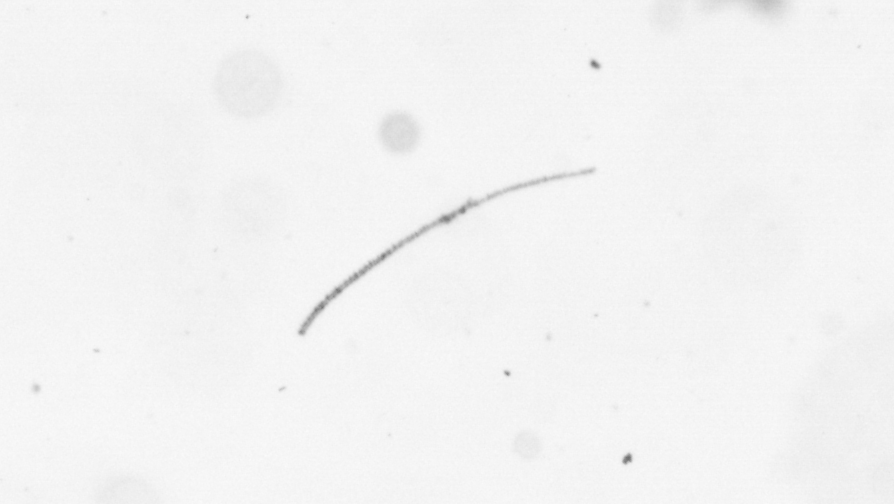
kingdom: Chromista
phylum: Ochrophyta
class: Bacillariophyceae
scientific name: Bacillariophyceae
